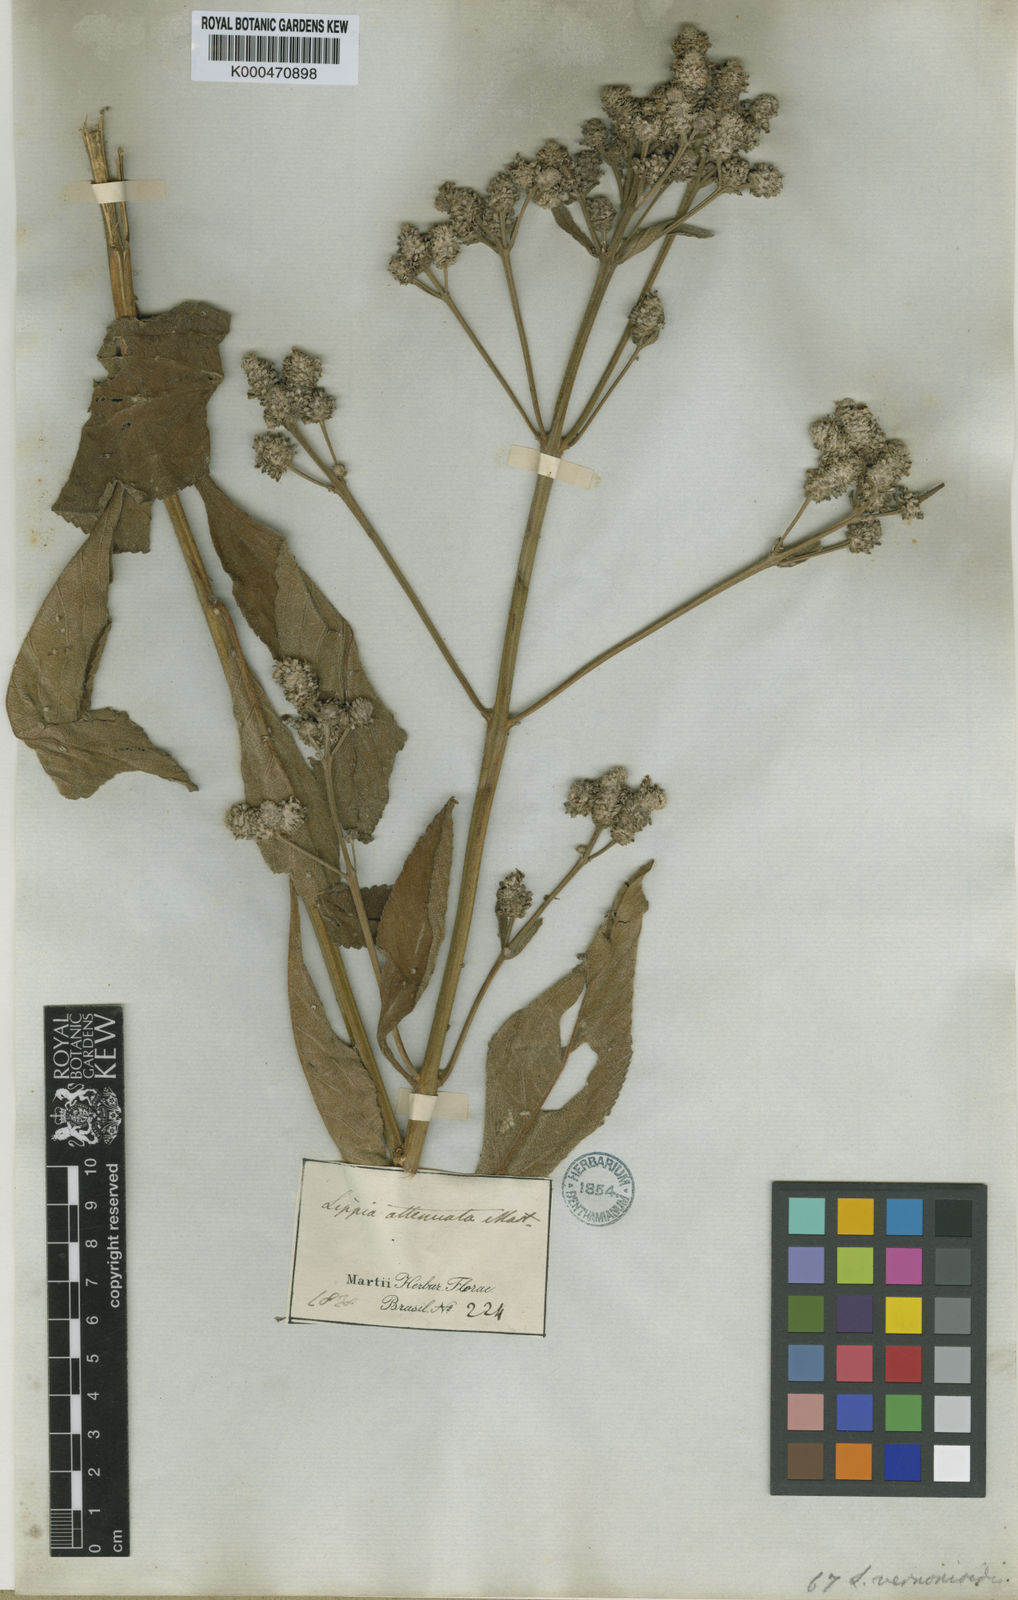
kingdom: Plantae
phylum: Tracheophyta
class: Magnoliopsida
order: Lamiales
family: Verbenaceae
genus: Lippia
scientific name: Lippia vernonioides
